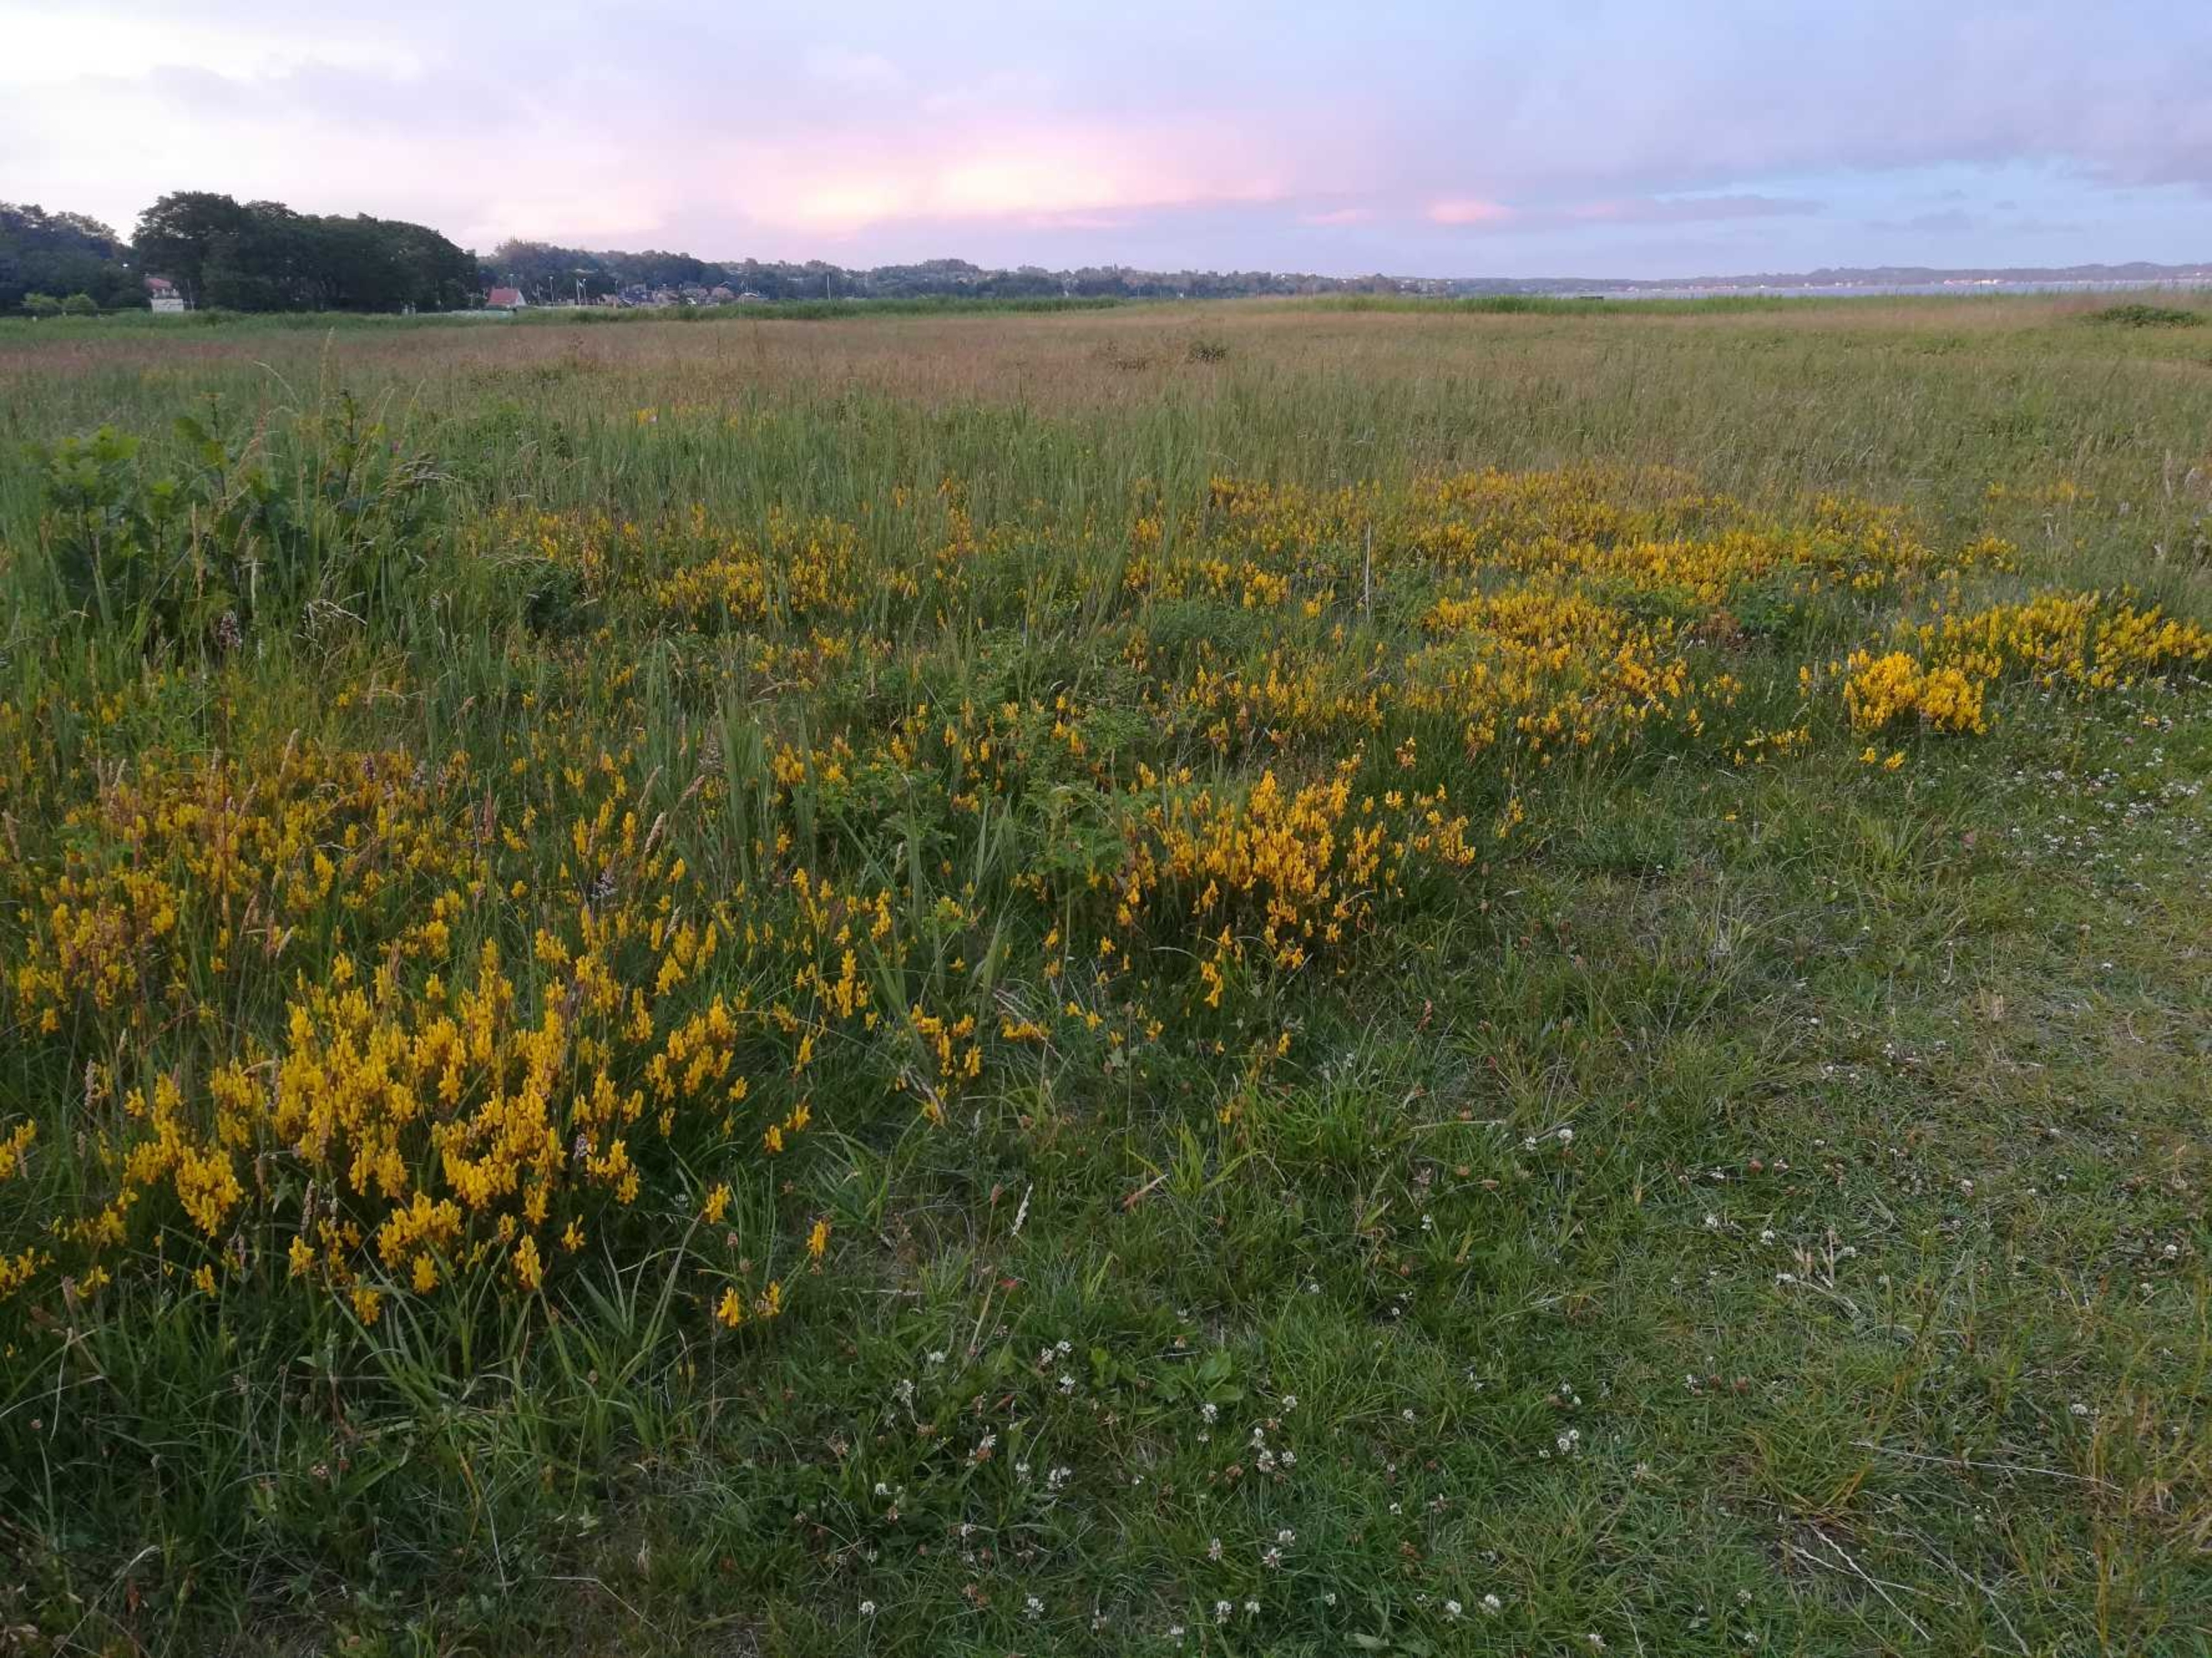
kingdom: Plantae
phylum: Tracheophyta
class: Magnoliopsida
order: Fabales
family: Fabaceae
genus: Genista
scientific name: Genista tinctoria
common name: Farve-visse
